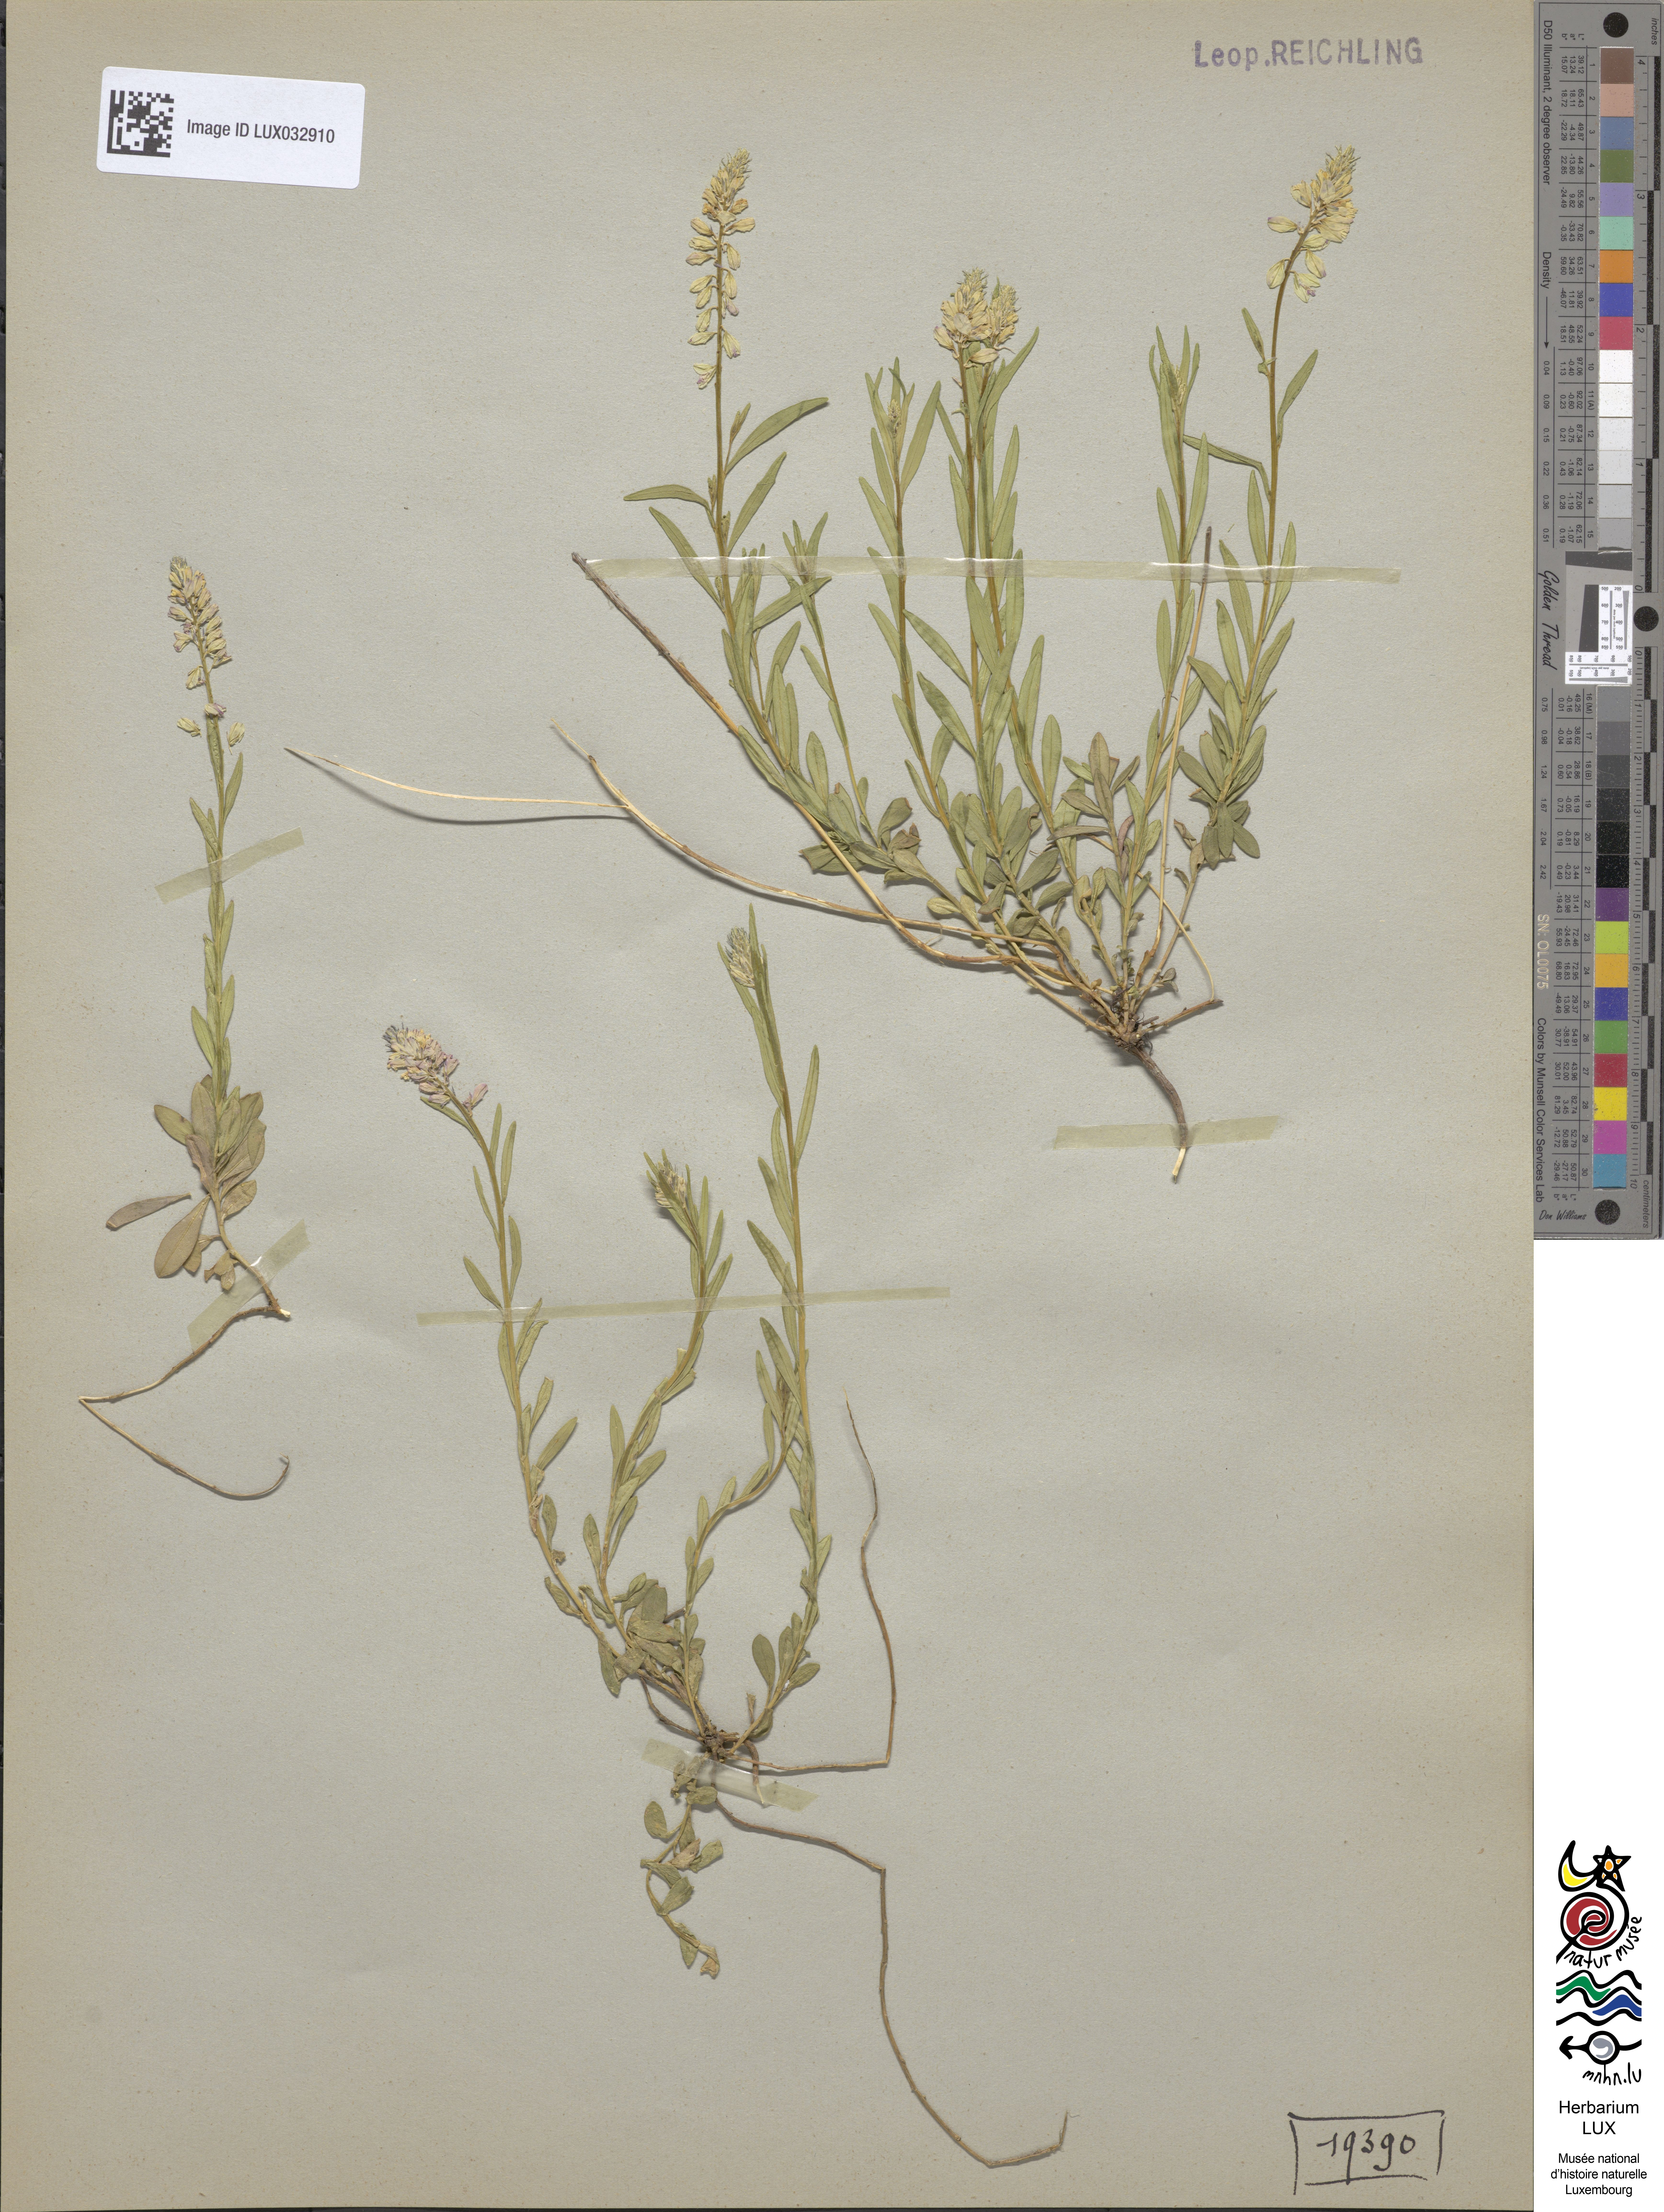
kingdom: Plantae
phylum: Tracheophyta
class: Magnoliopsida
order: Fabales
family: Polygalaceae
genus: Polygala
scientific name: Polygala comosa
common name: Tufted milkwort
